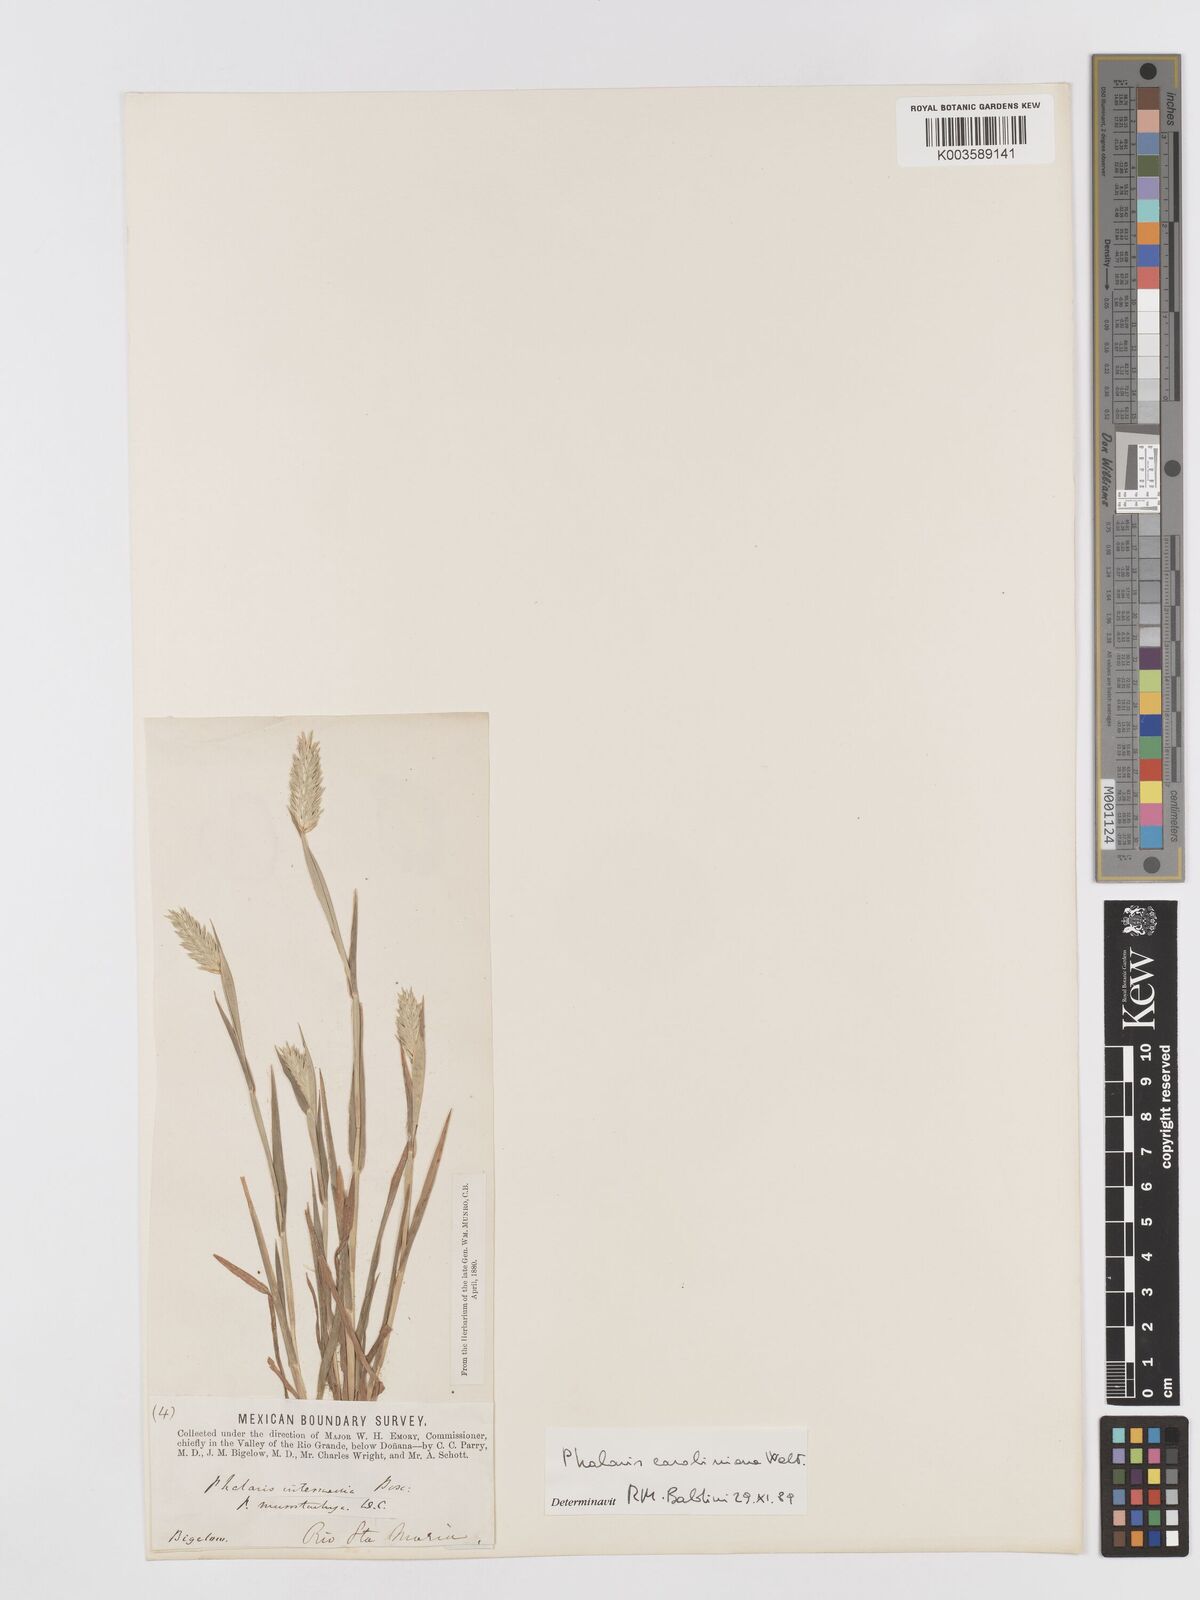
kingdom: Plantae
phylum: Tracheophyta
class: Liliopsida
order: Poales
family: Poaceae
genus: Phalaris
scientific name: Phalaris caroliniana
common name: May grass
